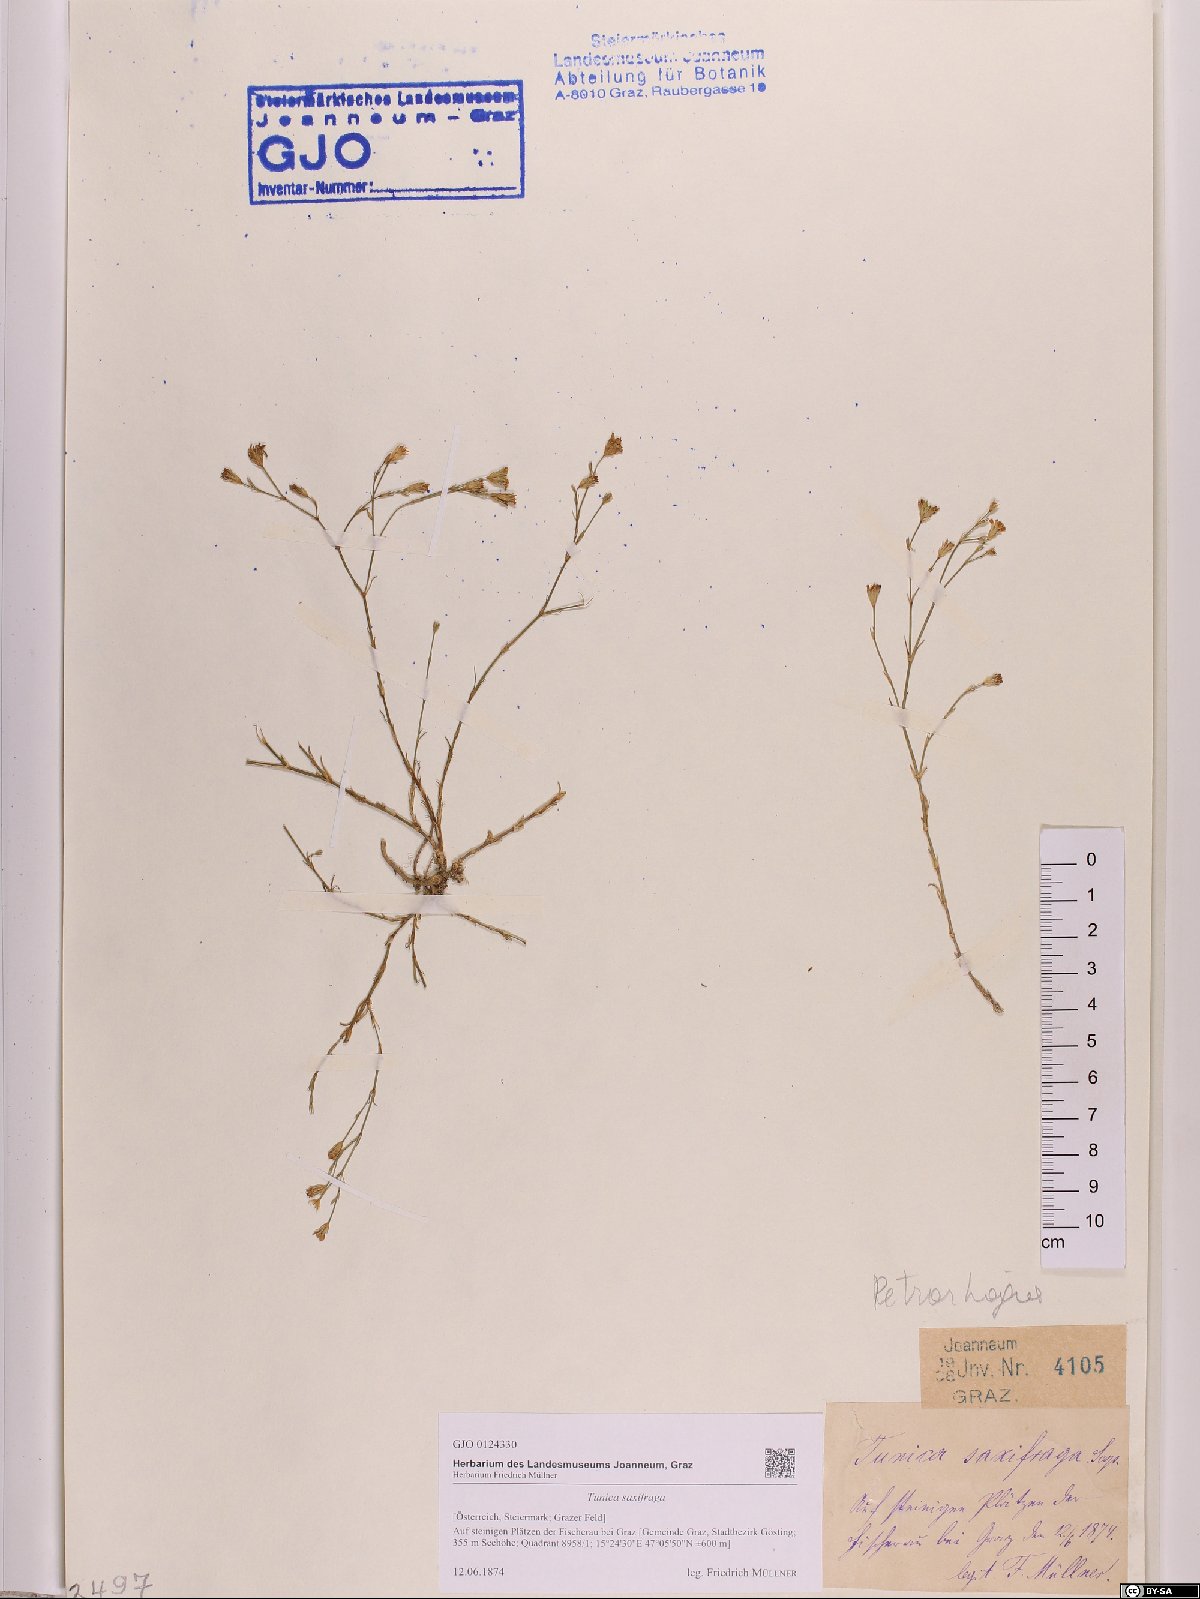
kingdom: Plantae
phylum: Tracheophyta
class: Magnoliopsida
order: Caryophyllales
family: Caryophyllaceae
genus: Petrorhagia
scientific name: Petrorhagia saxifraga
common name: Tunicflower
